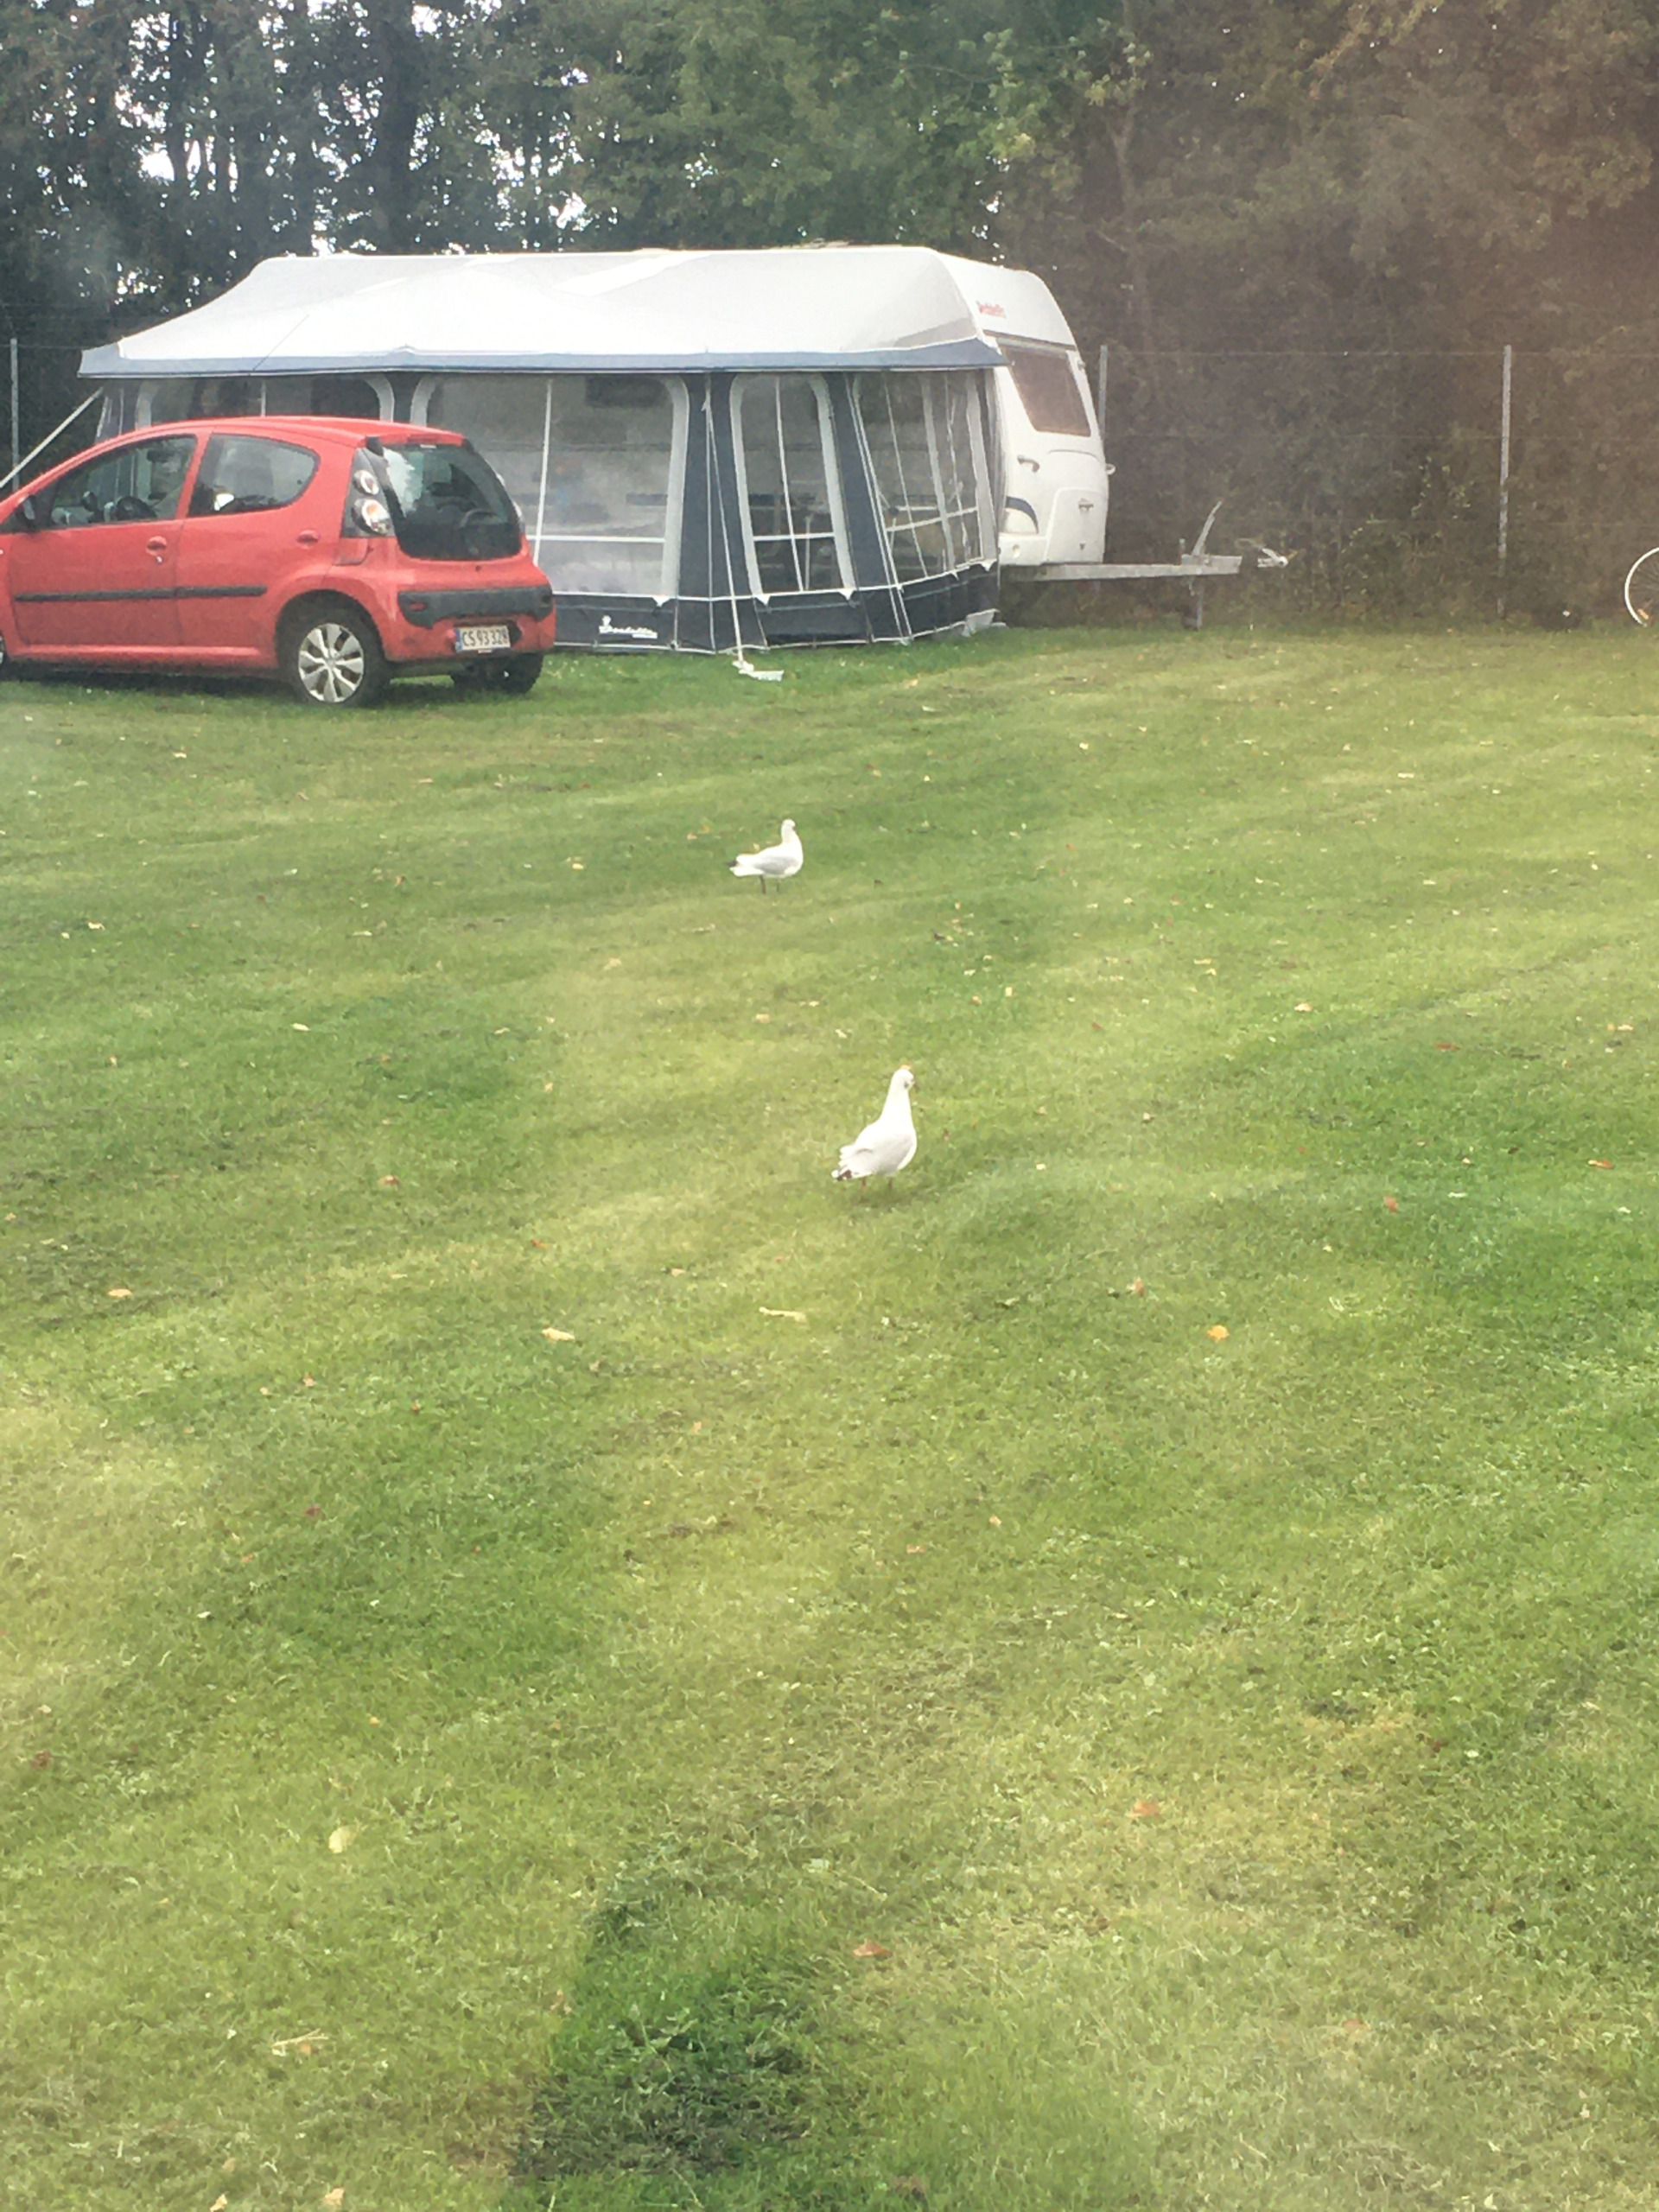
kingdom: Animalia
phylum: Chordata
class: Aves
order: Charadriiformes
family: Laridae
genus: Chroicocephalus
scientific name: Chroicocephalus ridibundus
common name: Hættemåge
